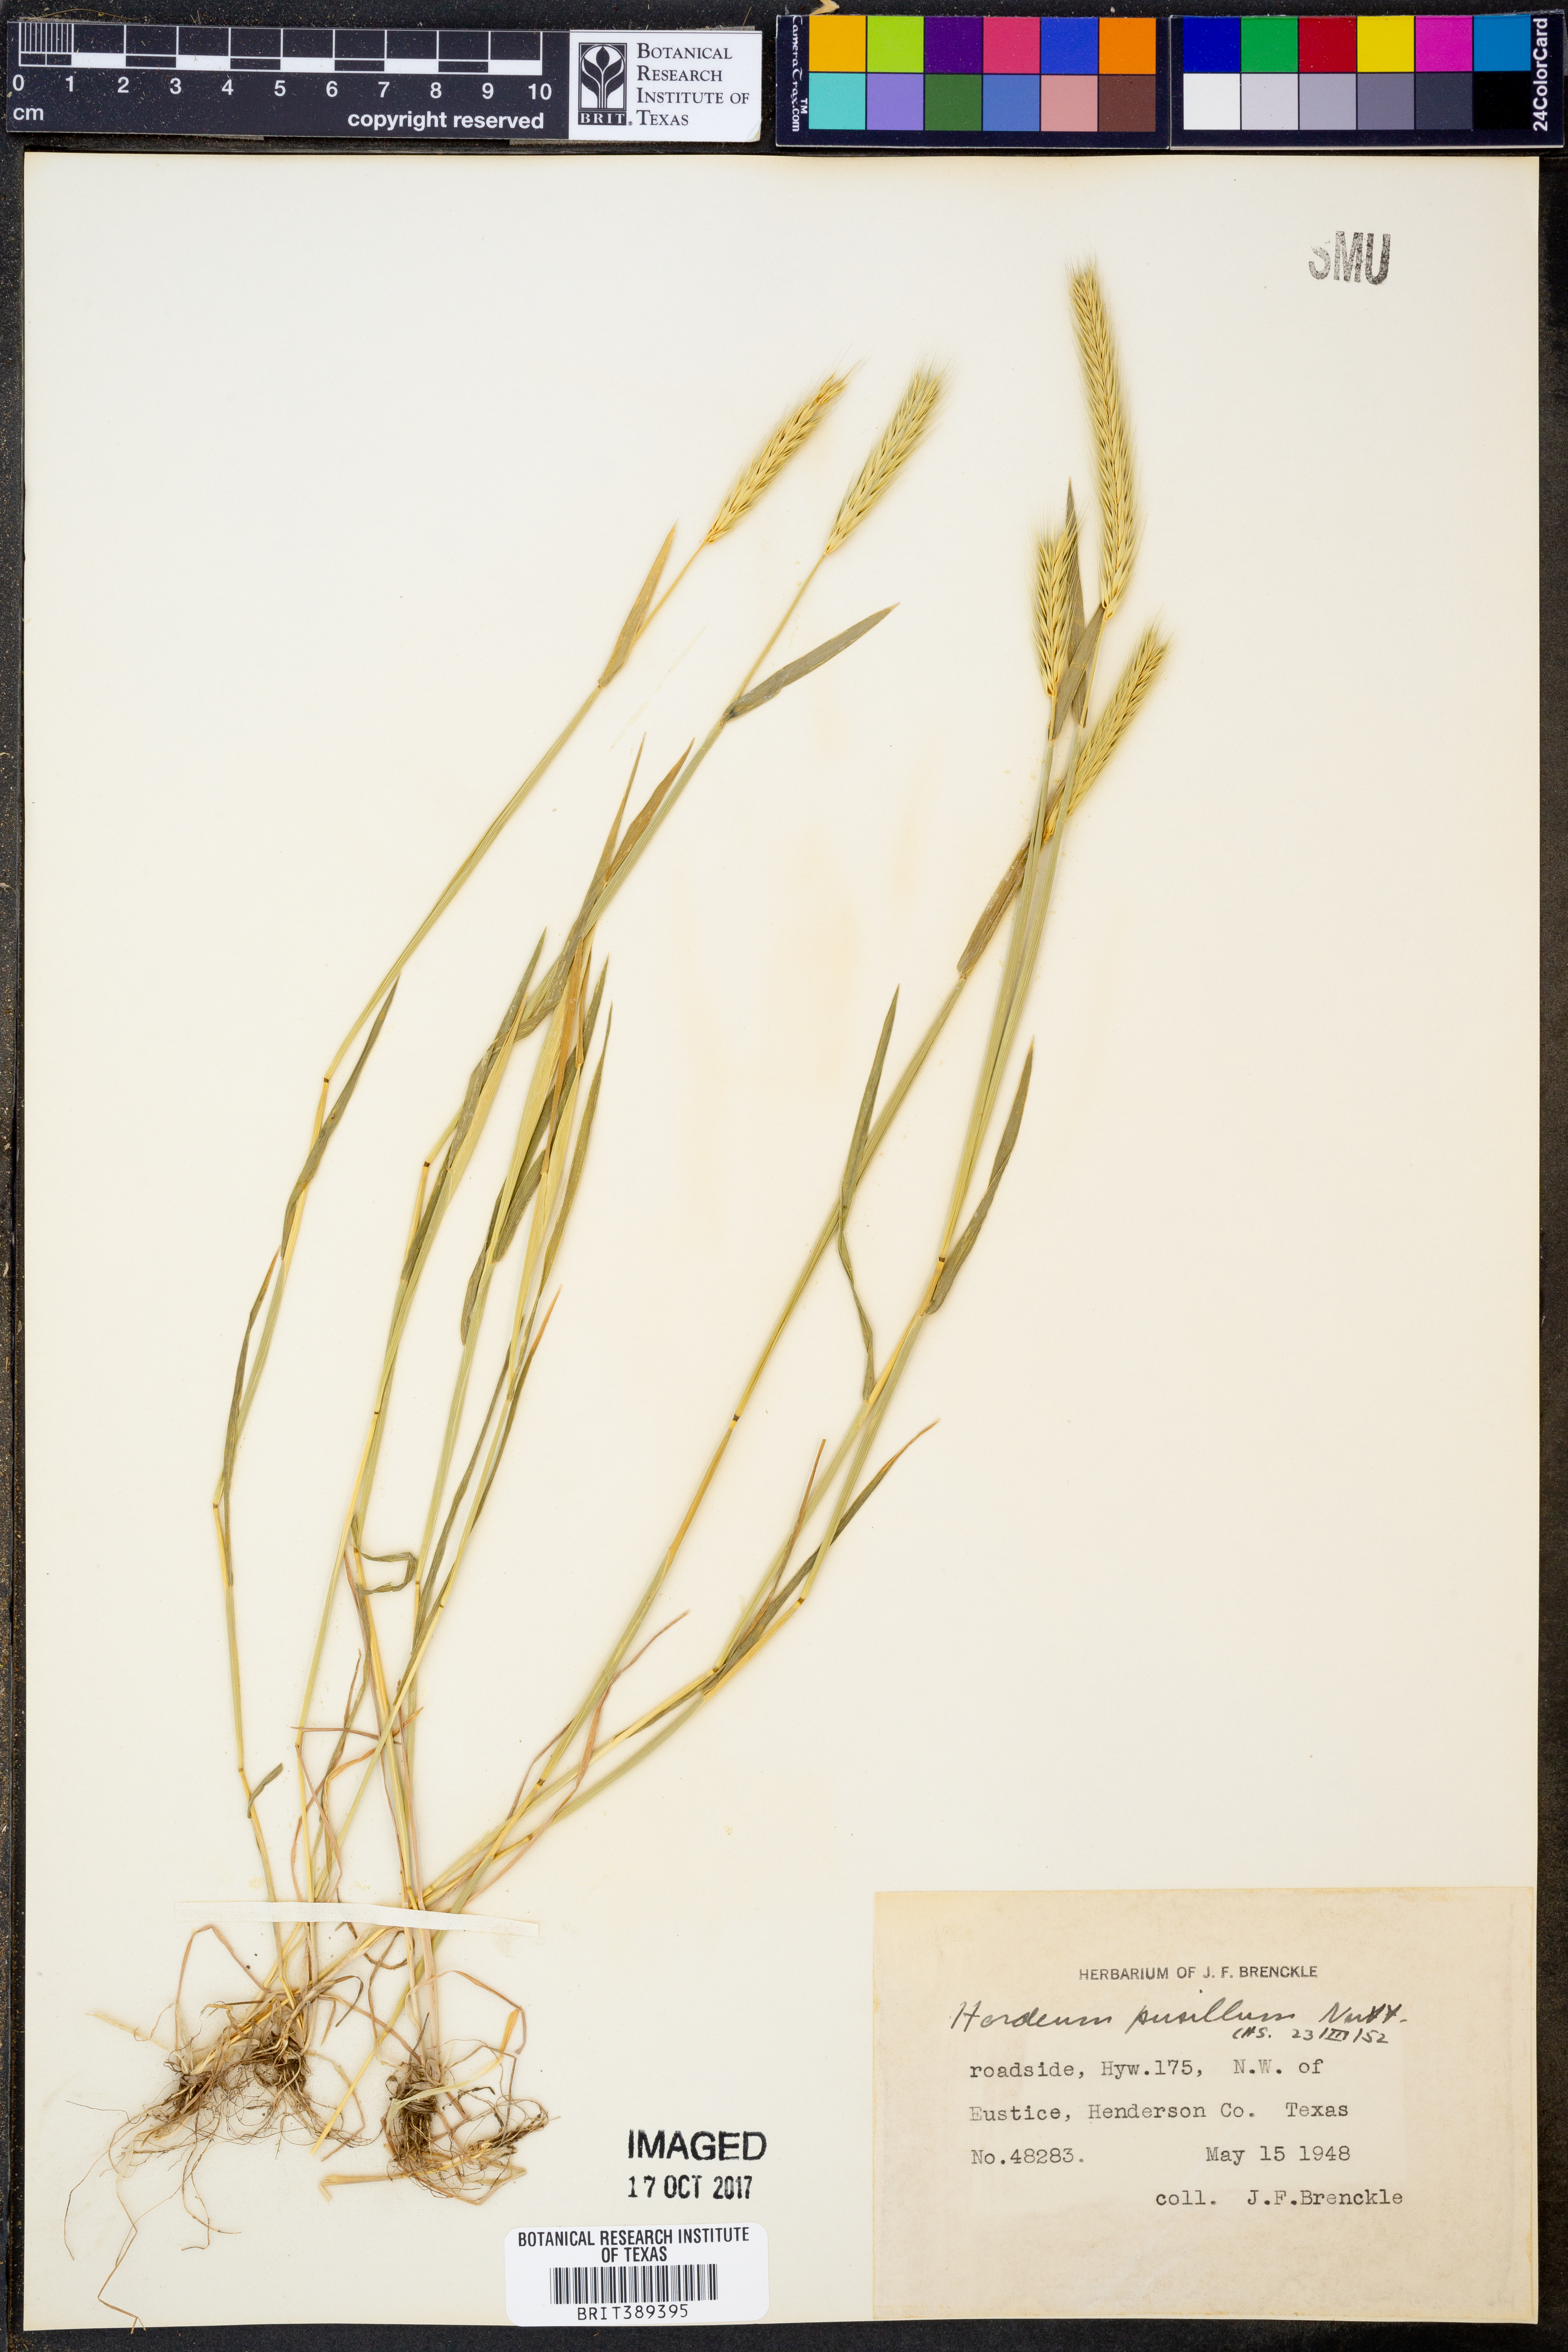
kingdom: Plantae
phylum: Tracheophyta
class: Liliopsida
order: Poales
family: Poaceae
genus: Hordeum
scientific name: Hordeum pusillum
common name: Little barley
